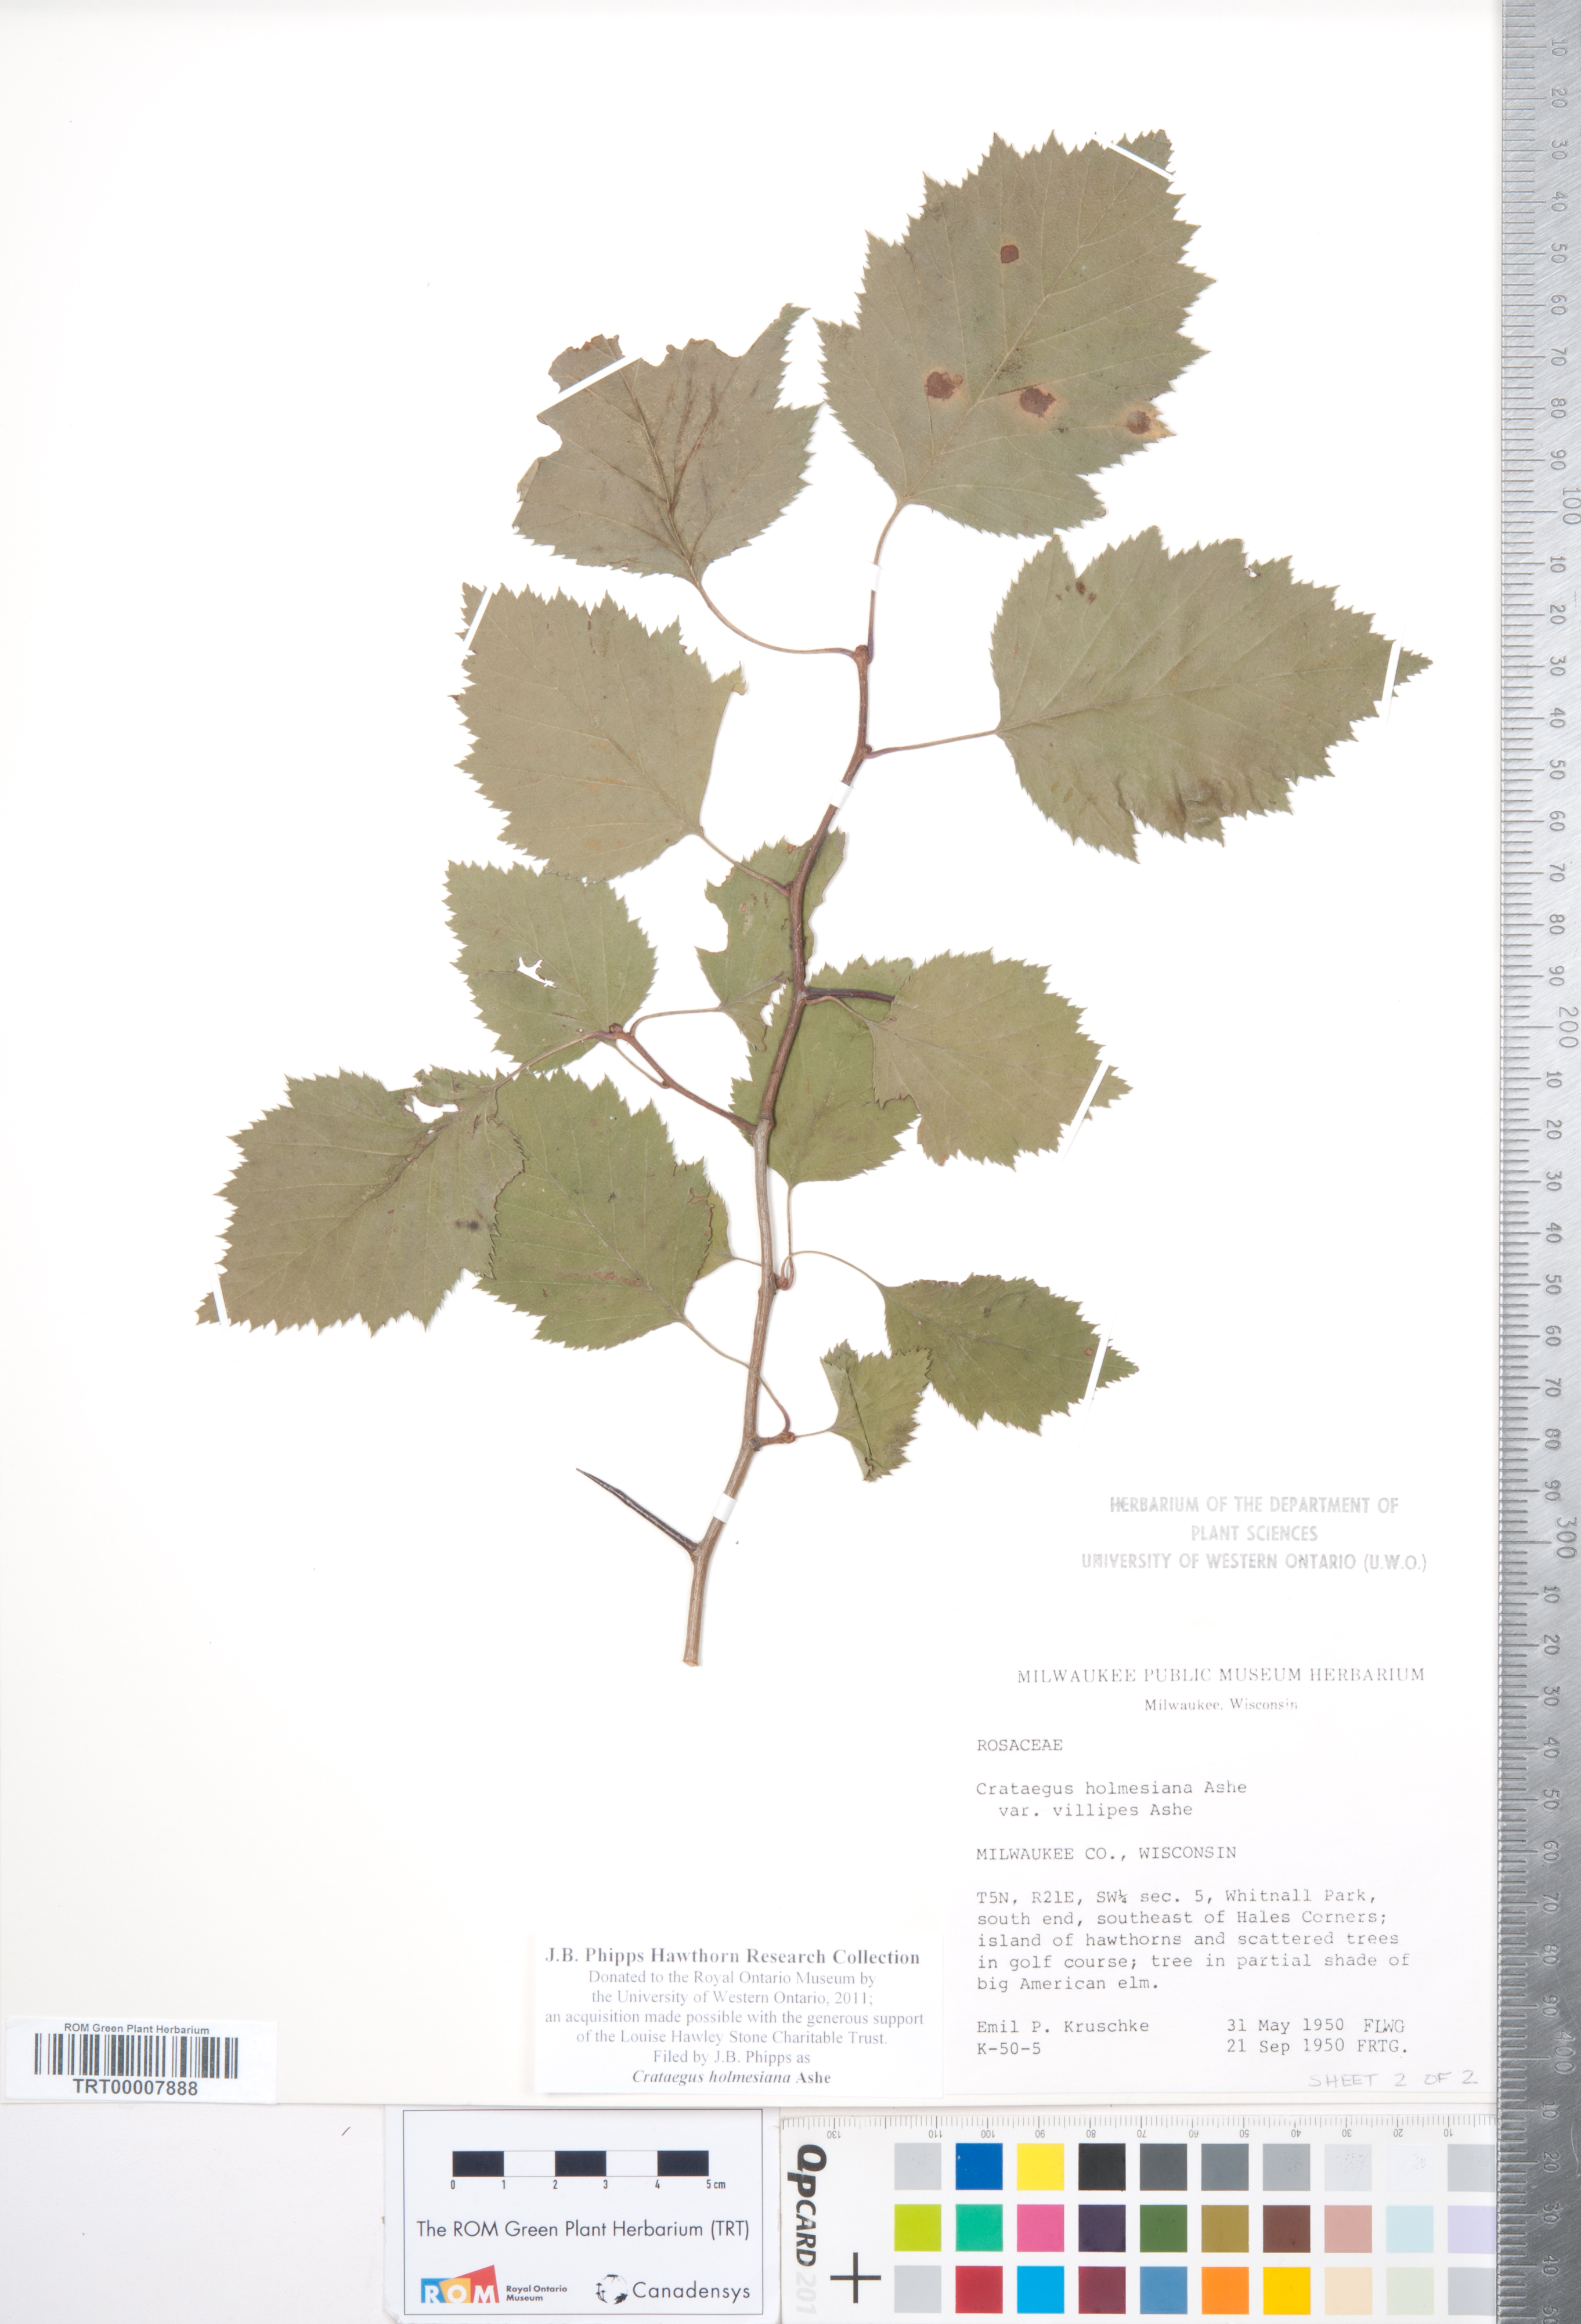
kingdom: Plantae
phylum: Tracheophyta
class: Magnoliopsida
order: Rosales
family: Rosaceae
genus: Crataegus
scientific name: Crataegus holmesiana
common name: Holmes' hawthorn
